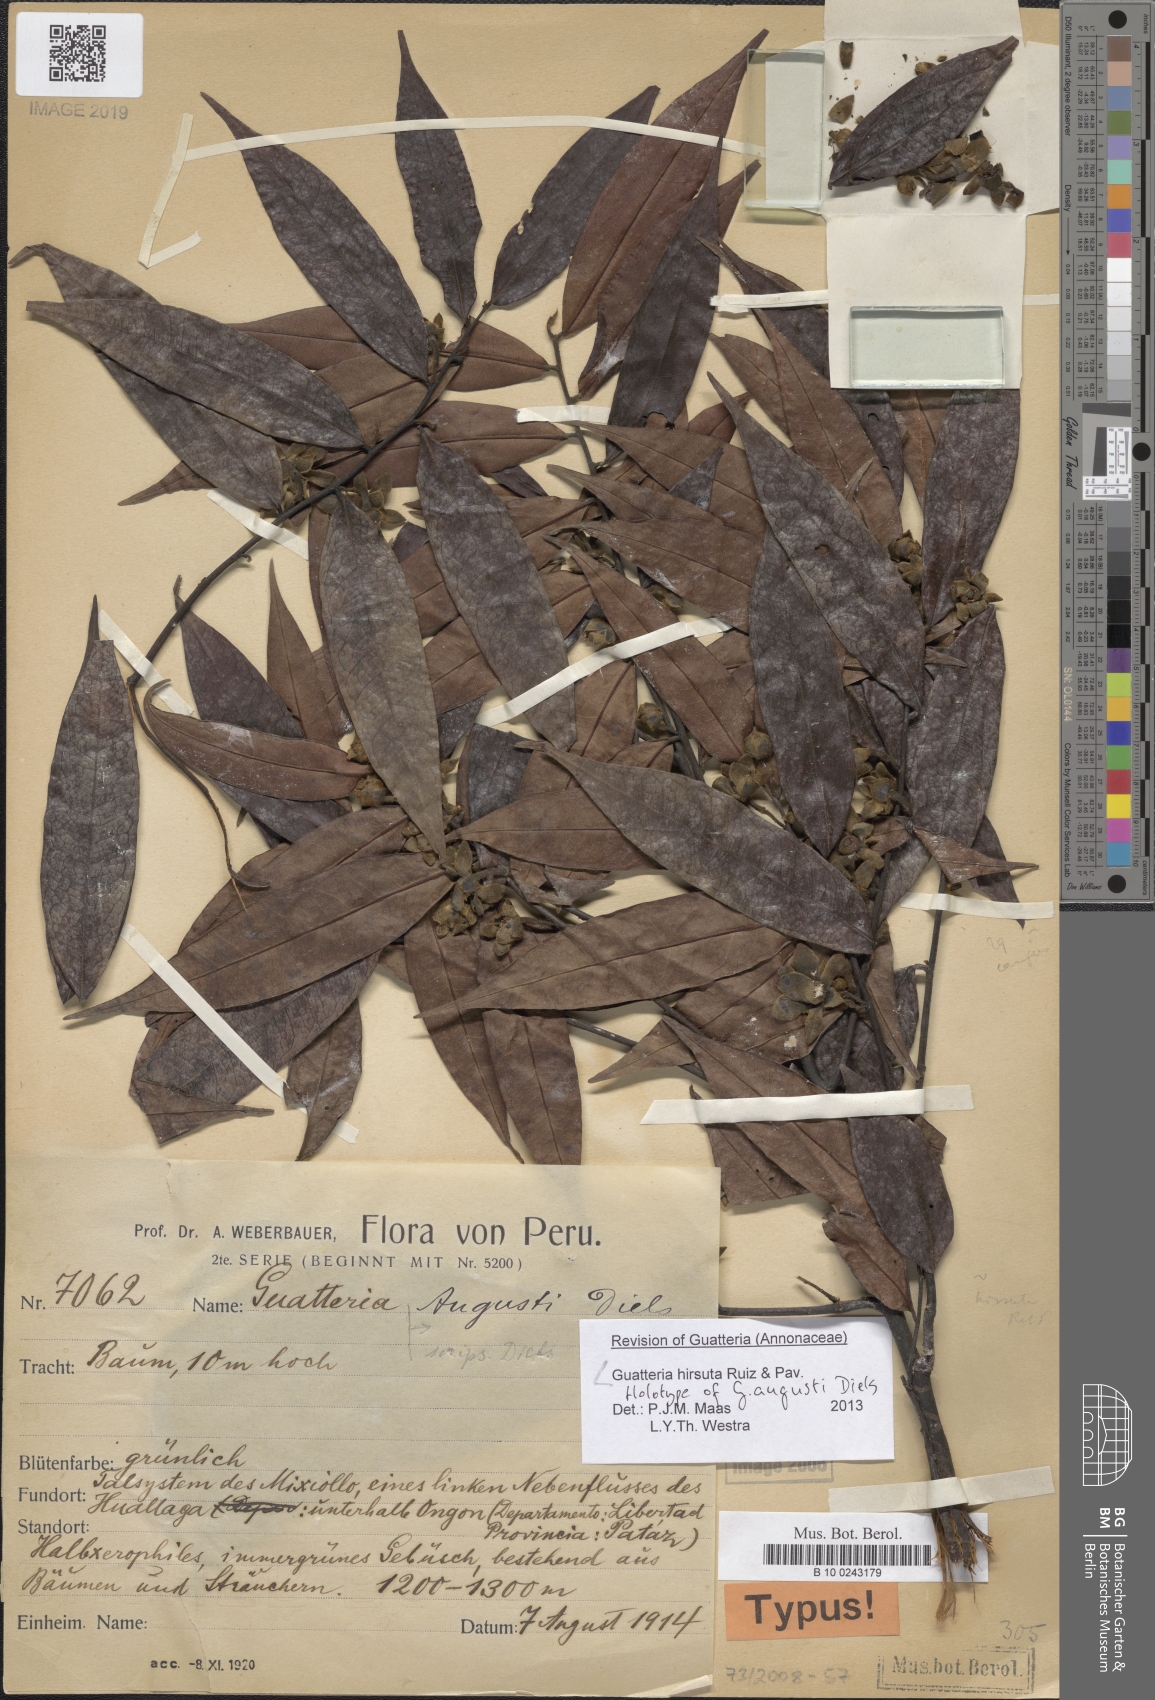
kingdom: Plantae
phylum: Tracheophyta
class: Magnoliopsida
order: Magnoliales
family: Annonaceae
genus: Guatteria
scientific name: Guatteria hirsuta
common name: Laurel
